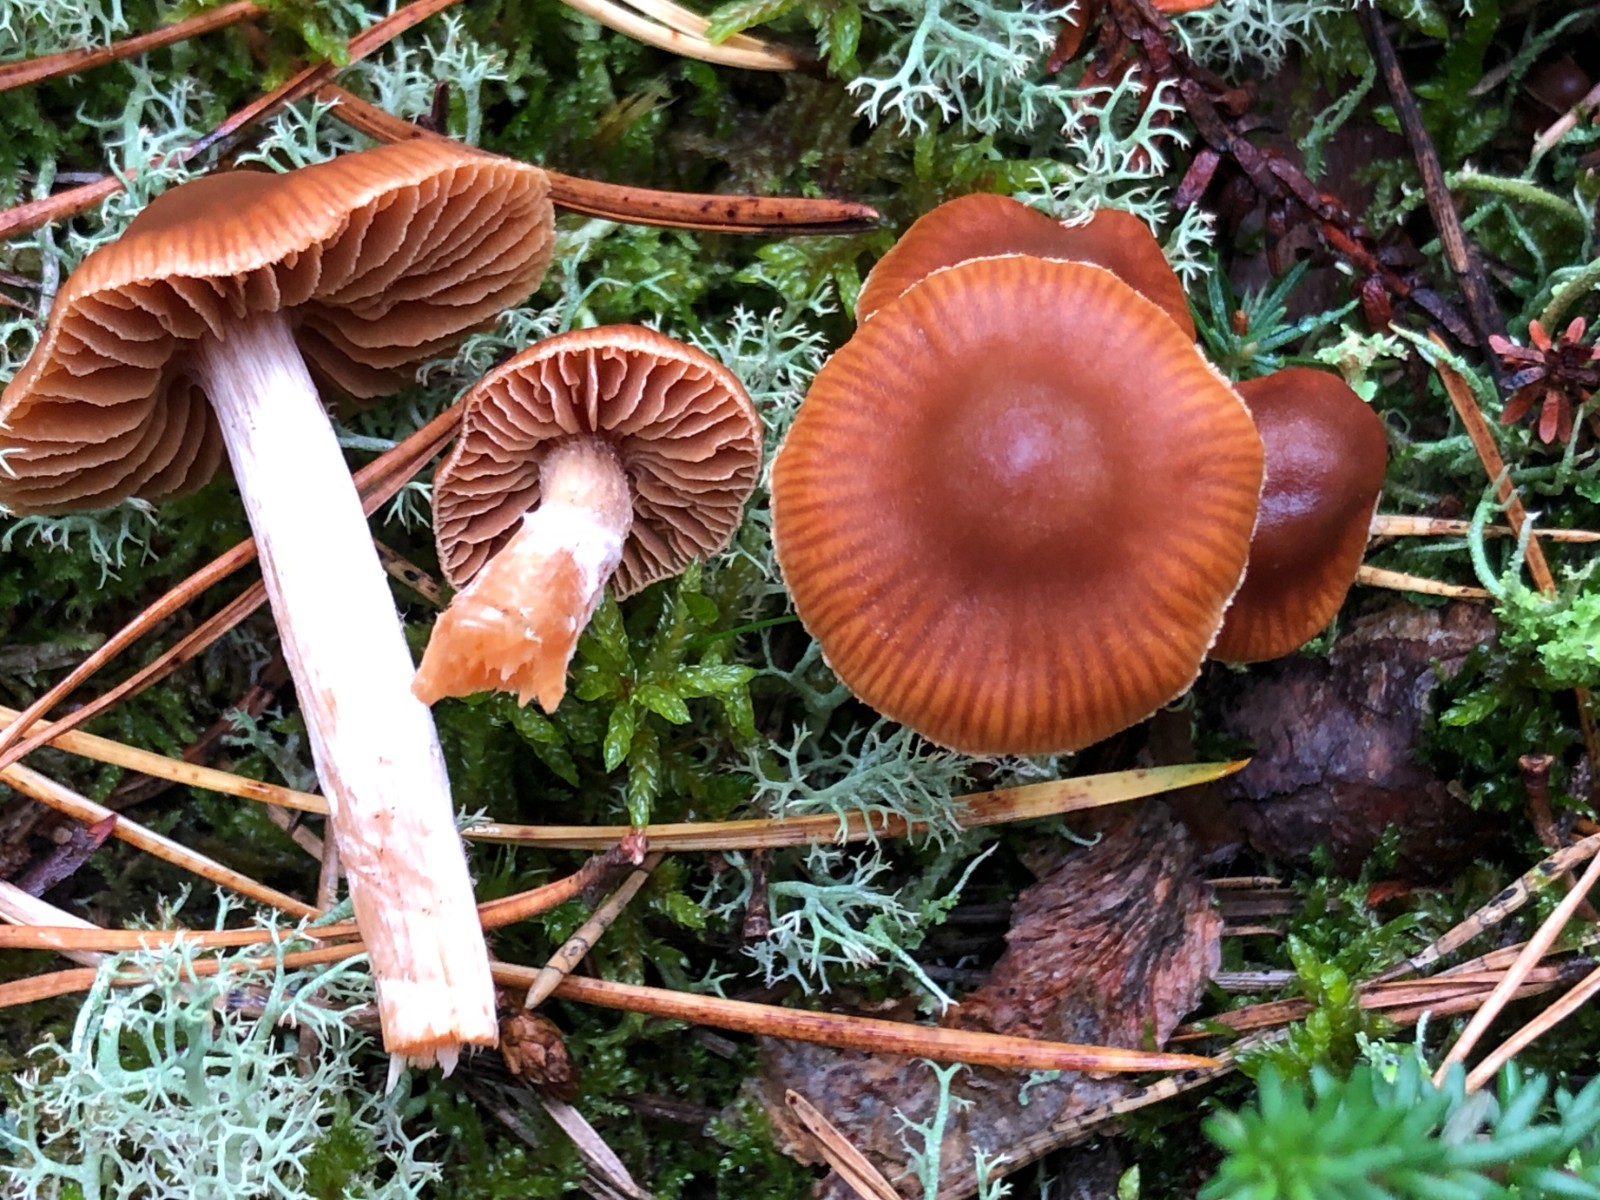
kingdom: Fungi
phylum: Basidiomycota
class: Agaricomycetes
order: Agaricales
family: Cortinariaceae
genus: Cortinarius
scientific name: Cortinarius
